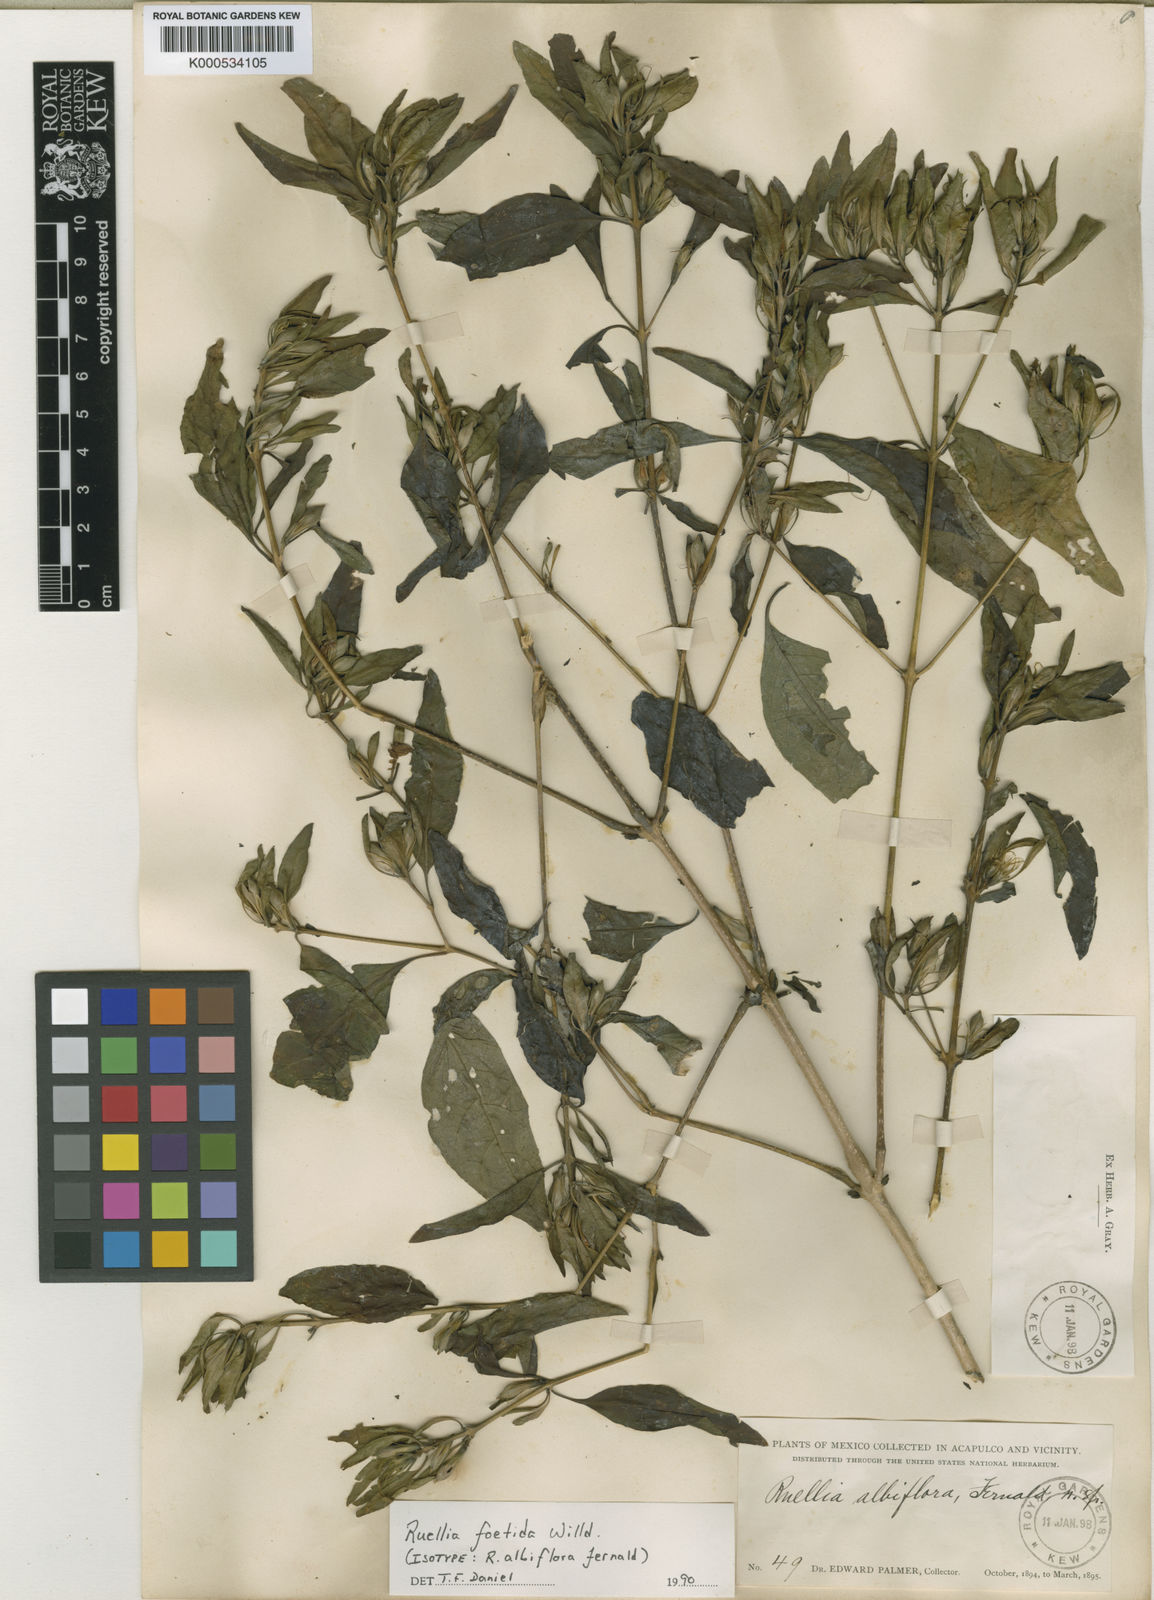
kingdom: Plantae
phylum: Tracheophyta
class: Magnoliopsida
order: Lamiales
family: Acanthaceae
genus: Ruellia
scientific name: Ruellia foetida
